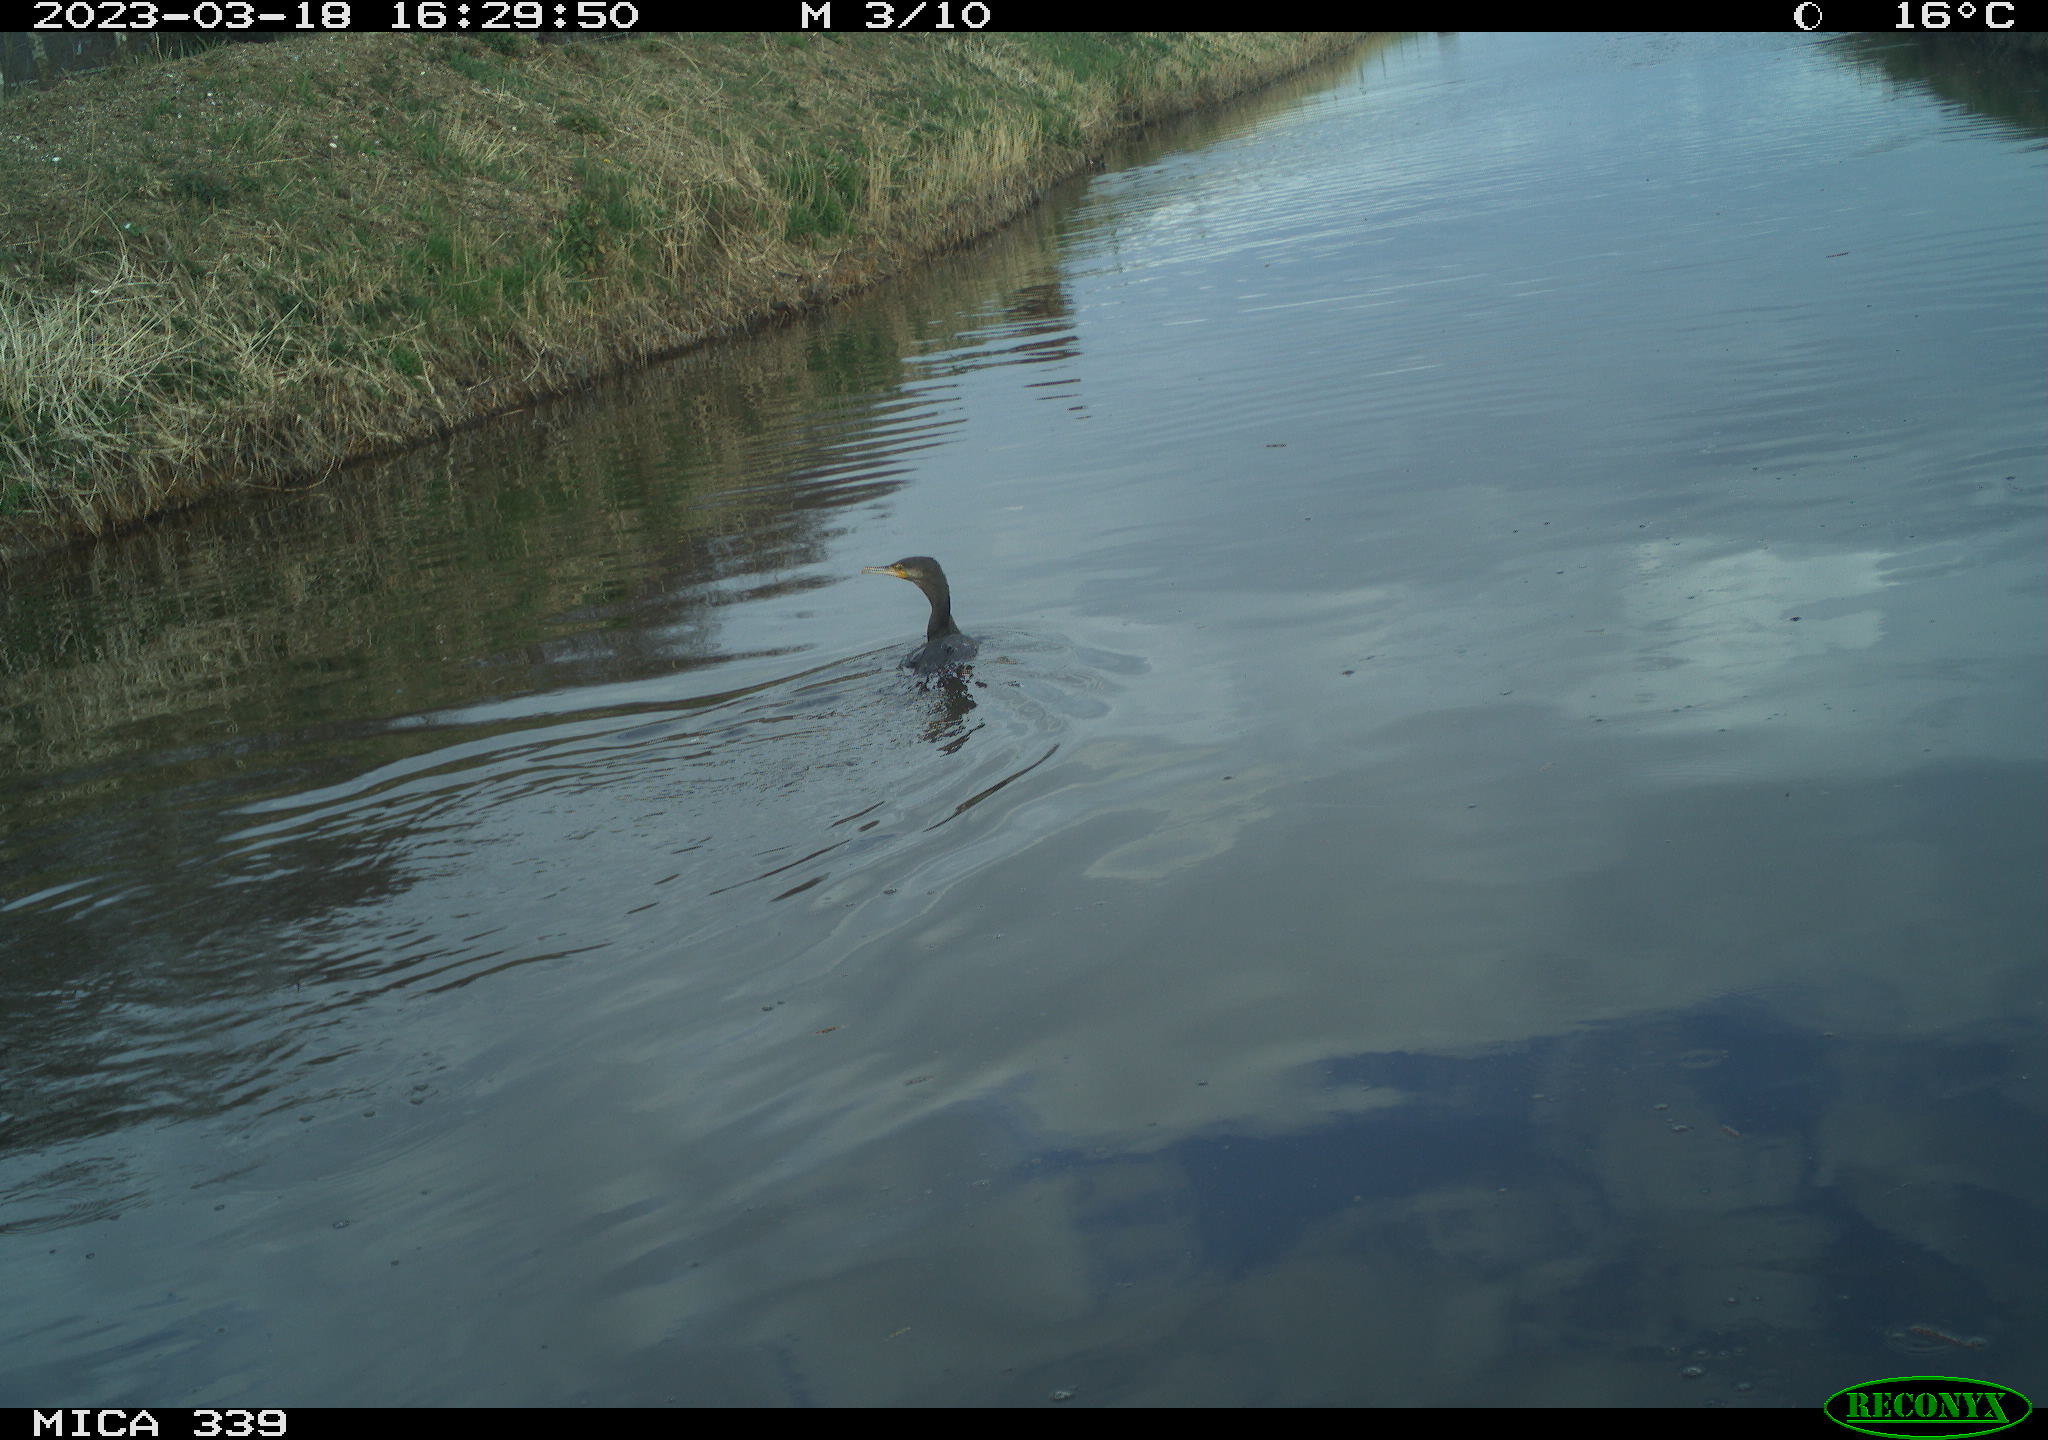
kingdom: Animalia
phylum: Chordata
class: Aves
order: Anseriformes
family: Anatidae
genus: Anas
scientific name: Anas
